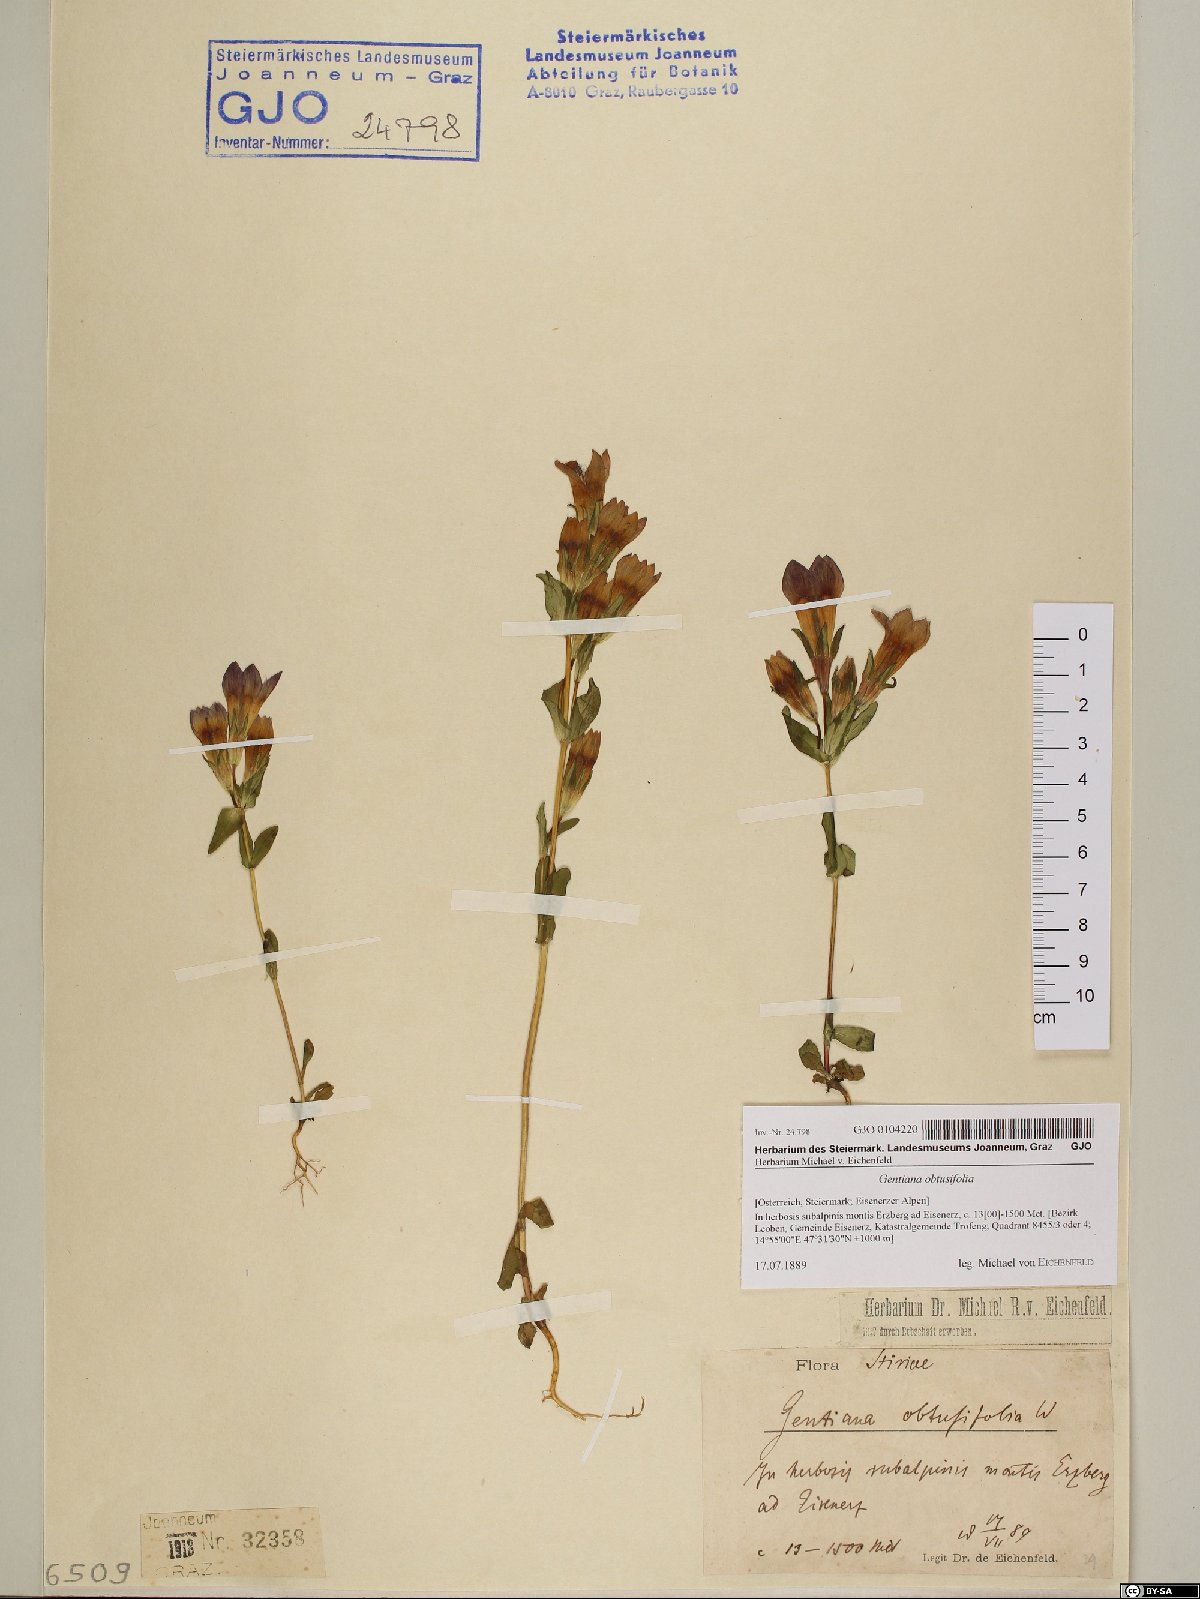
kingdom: Plantae
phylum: Tracheophyta
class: Magnoliopsida
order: Gentianales
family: Gentianaceae
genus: Gentianella
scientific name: Gentianella obtusifolia
